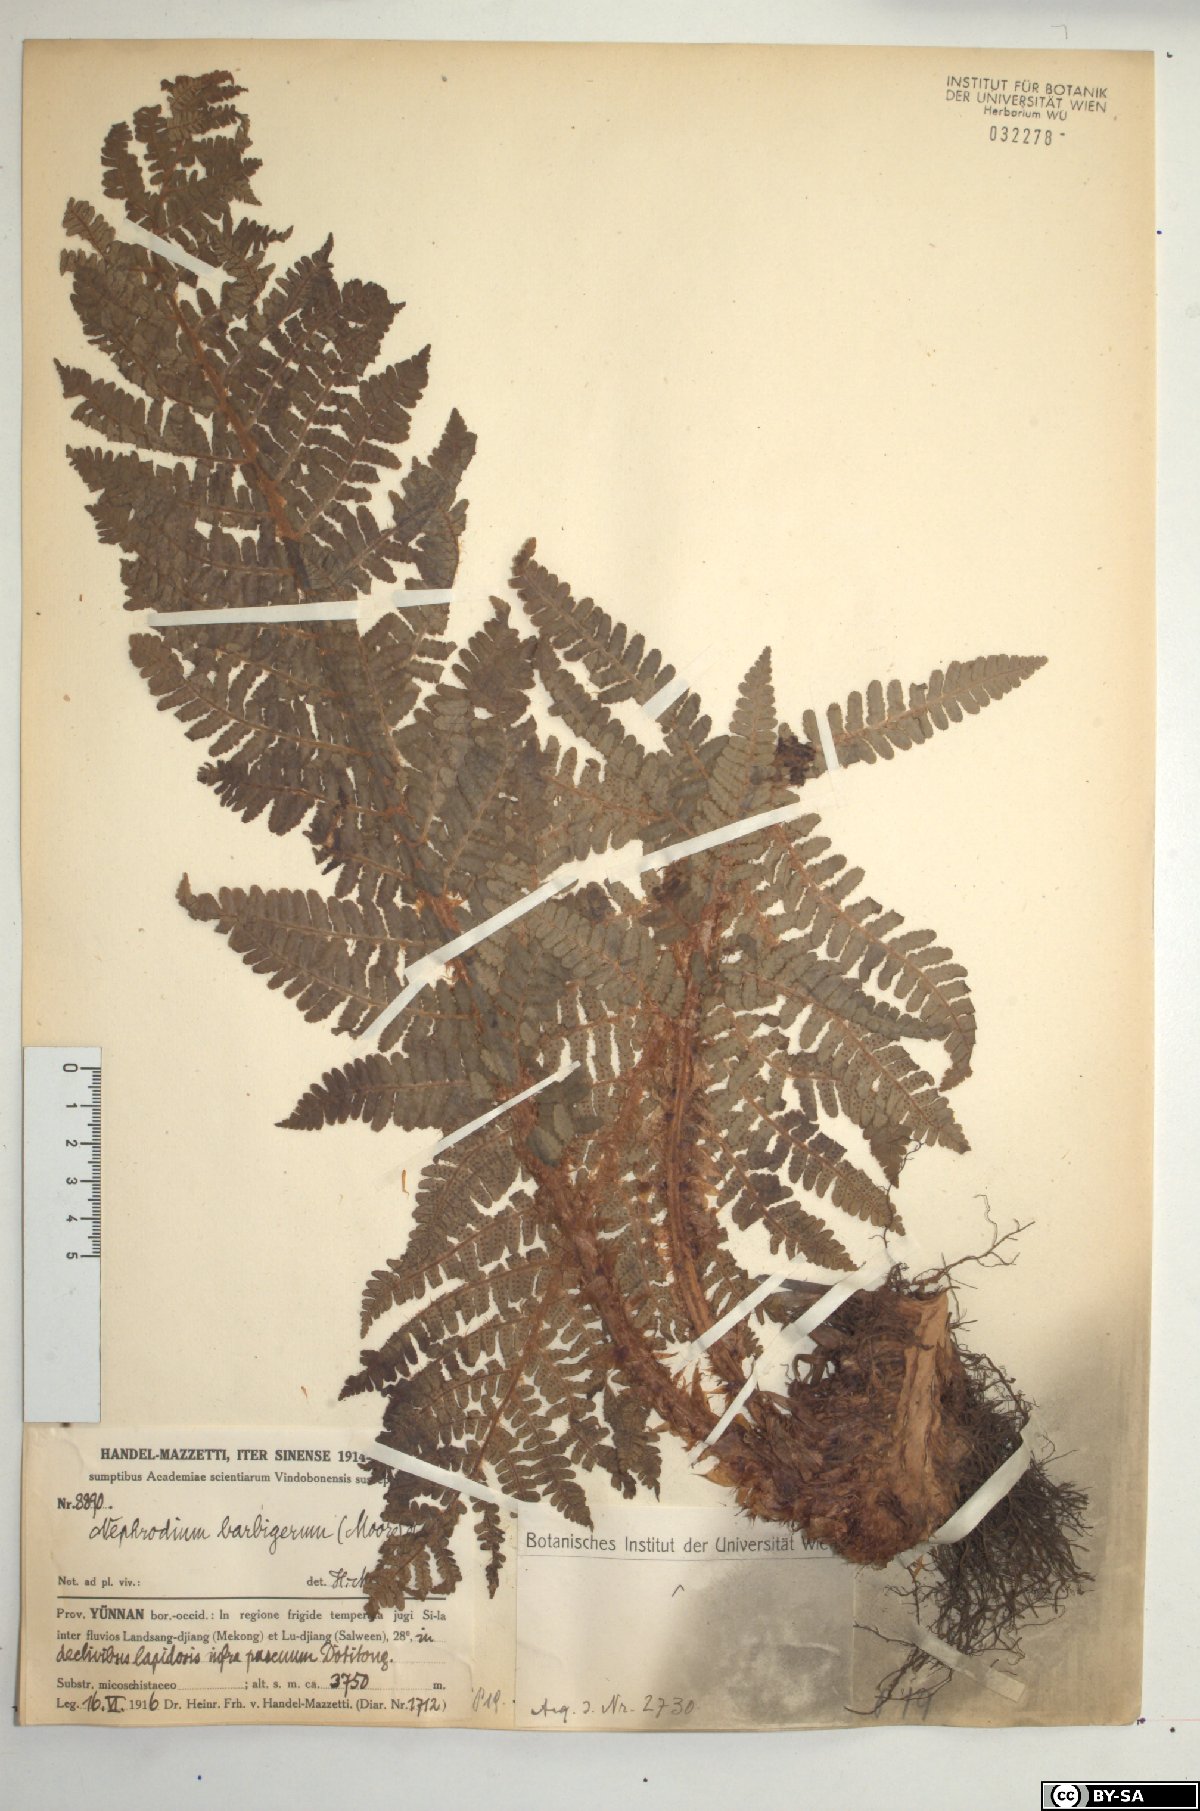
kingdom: Plantae
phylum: Tracheophyta
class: Polypodiopsida
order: Polypodiales
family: Dryopteridaceae
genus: Dryopteris
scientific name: Dryopteris barbigera
